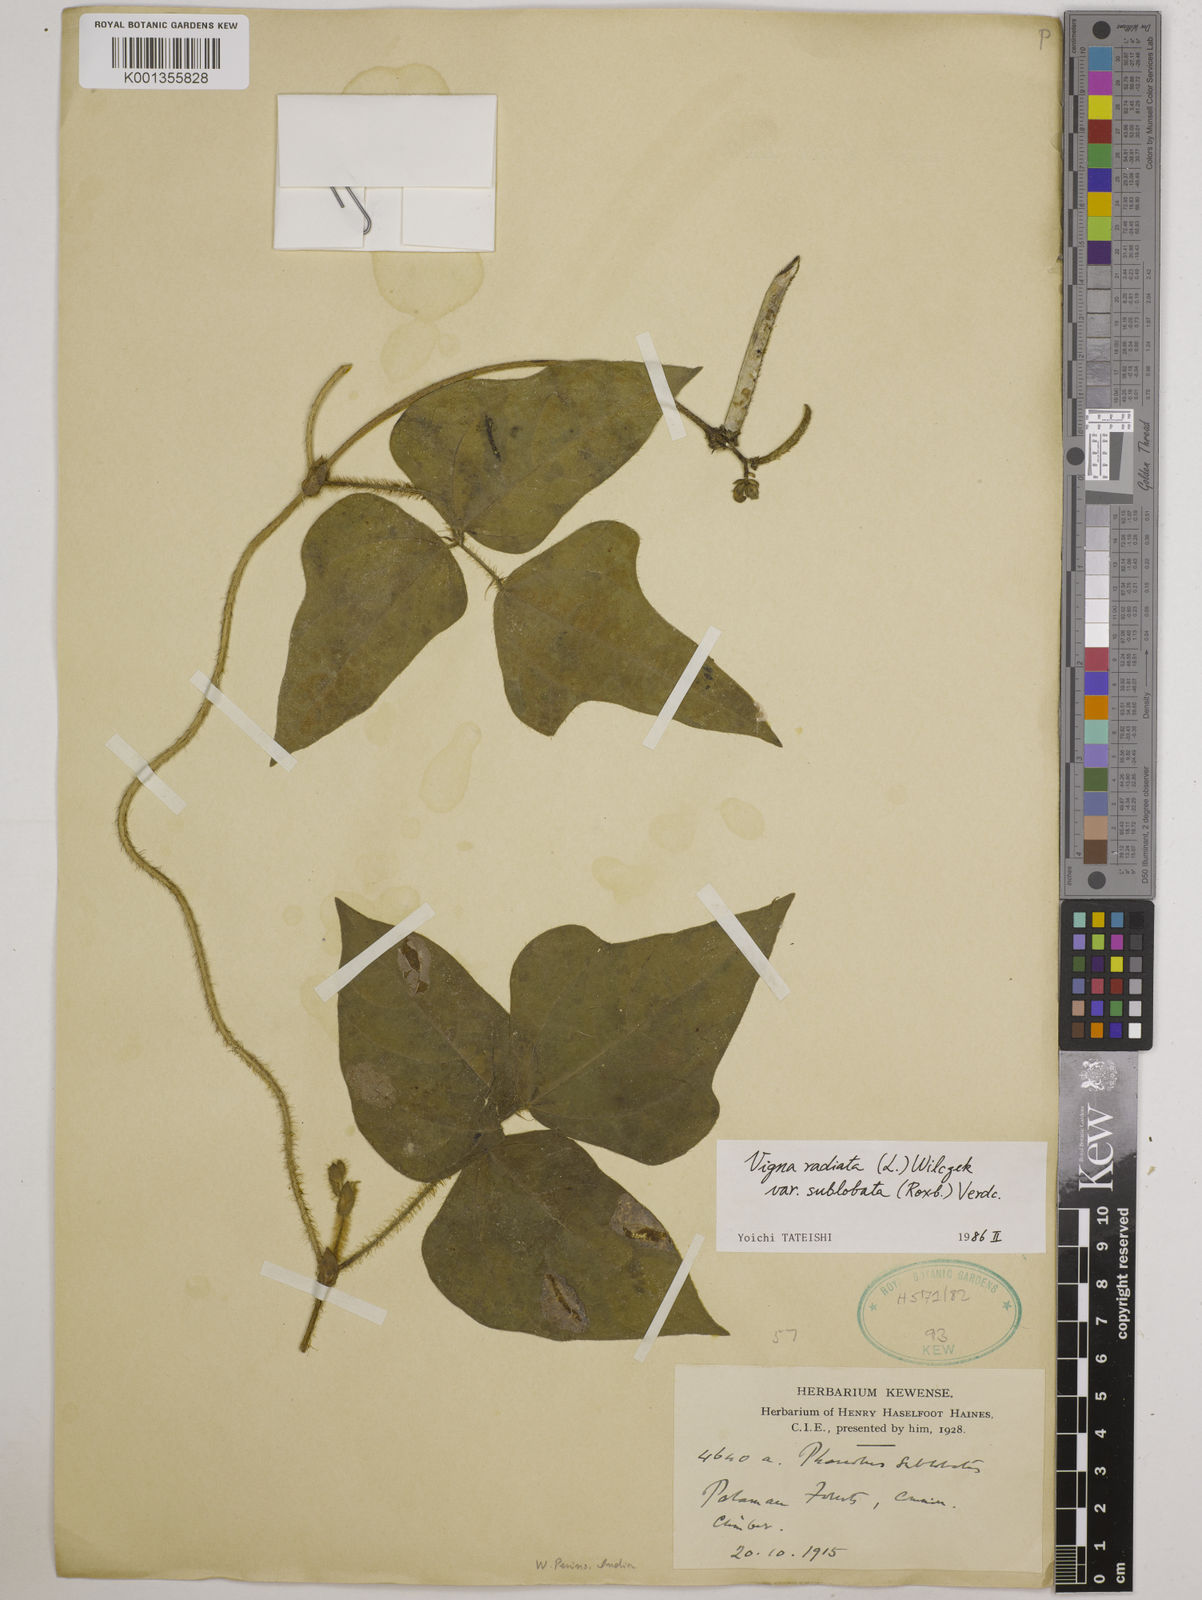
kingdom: Plantae
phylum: Tracheophyta
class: Magnoliopsida
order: Fabales
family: Fabaceae
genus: Vigna
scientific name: Vigna radiata
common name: Mung-bean
